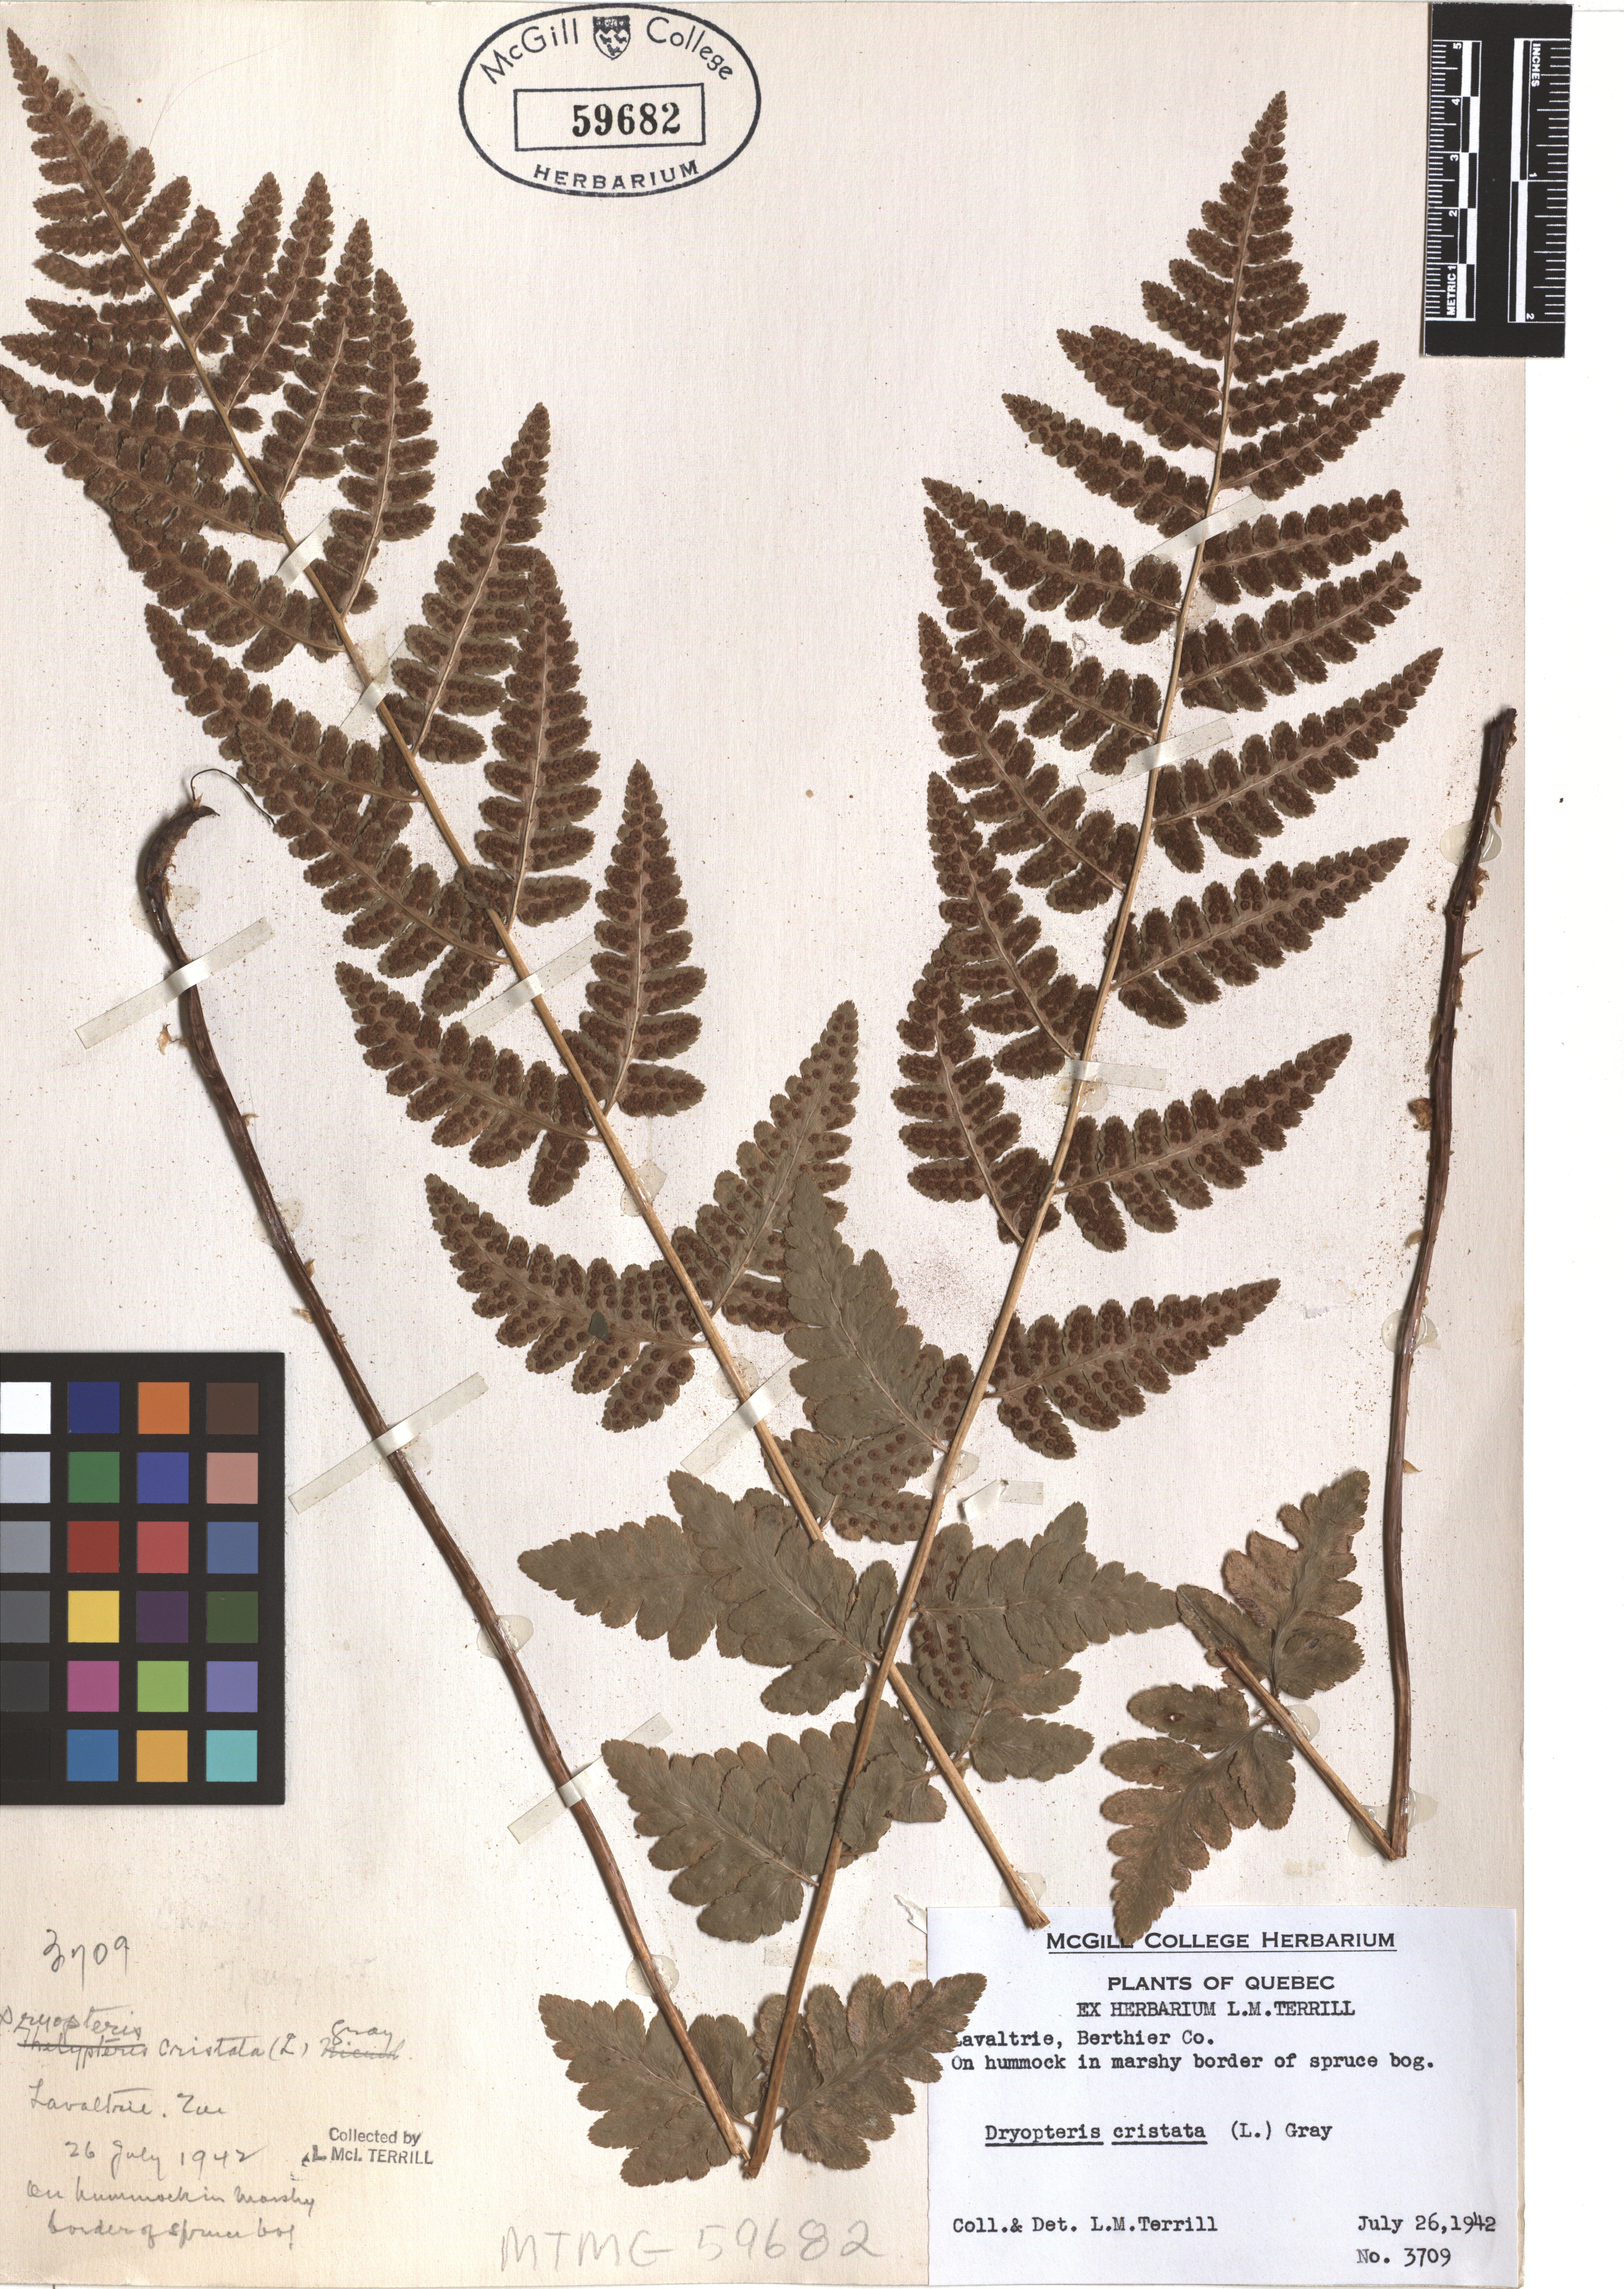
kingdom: Plantae
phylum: Tracheophyta
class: Polypodiopsida
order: Polypodiales
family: Dryopteridaceae
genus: Dryopteris
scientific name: Dryopteris cristata
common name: Crested wood fern
